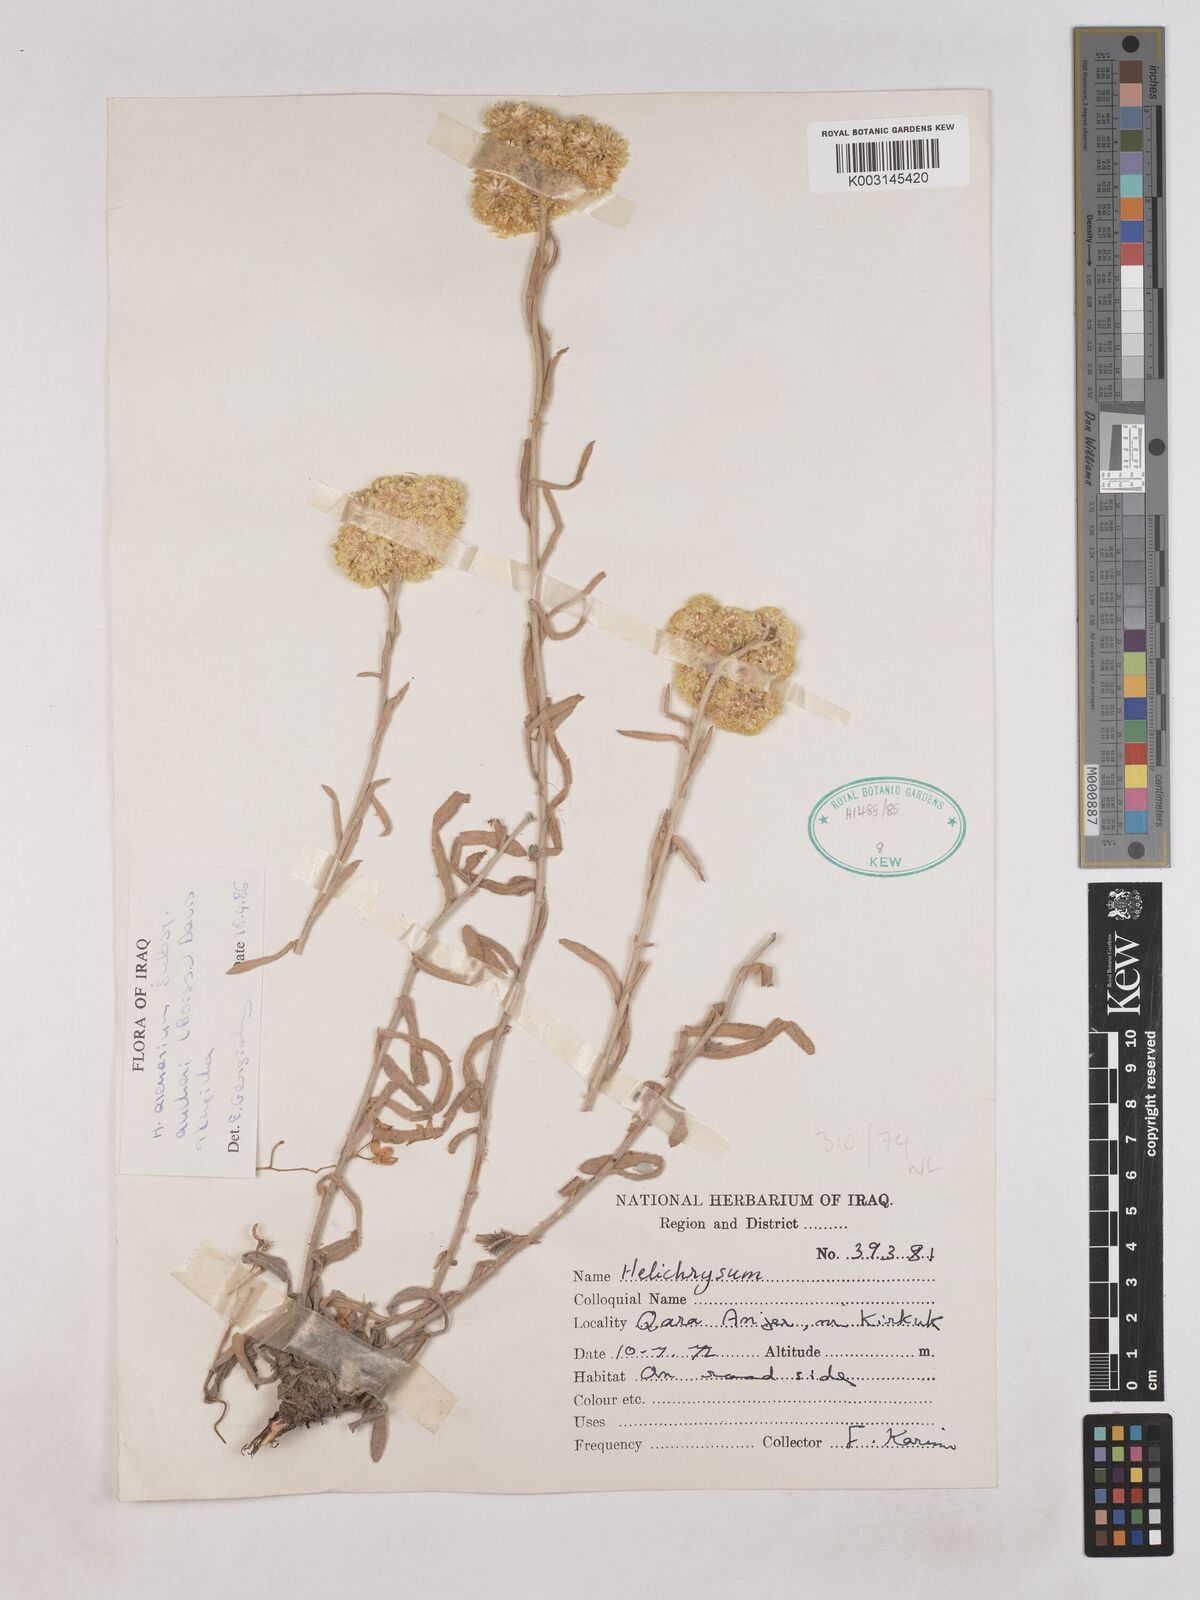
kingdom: Plantae
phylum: Tracheophyta
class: Magnoliopsida
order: Asterales
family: Asteraceae
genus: Helichrysum
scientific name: Helichrysum arenarium
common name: Strawflower
